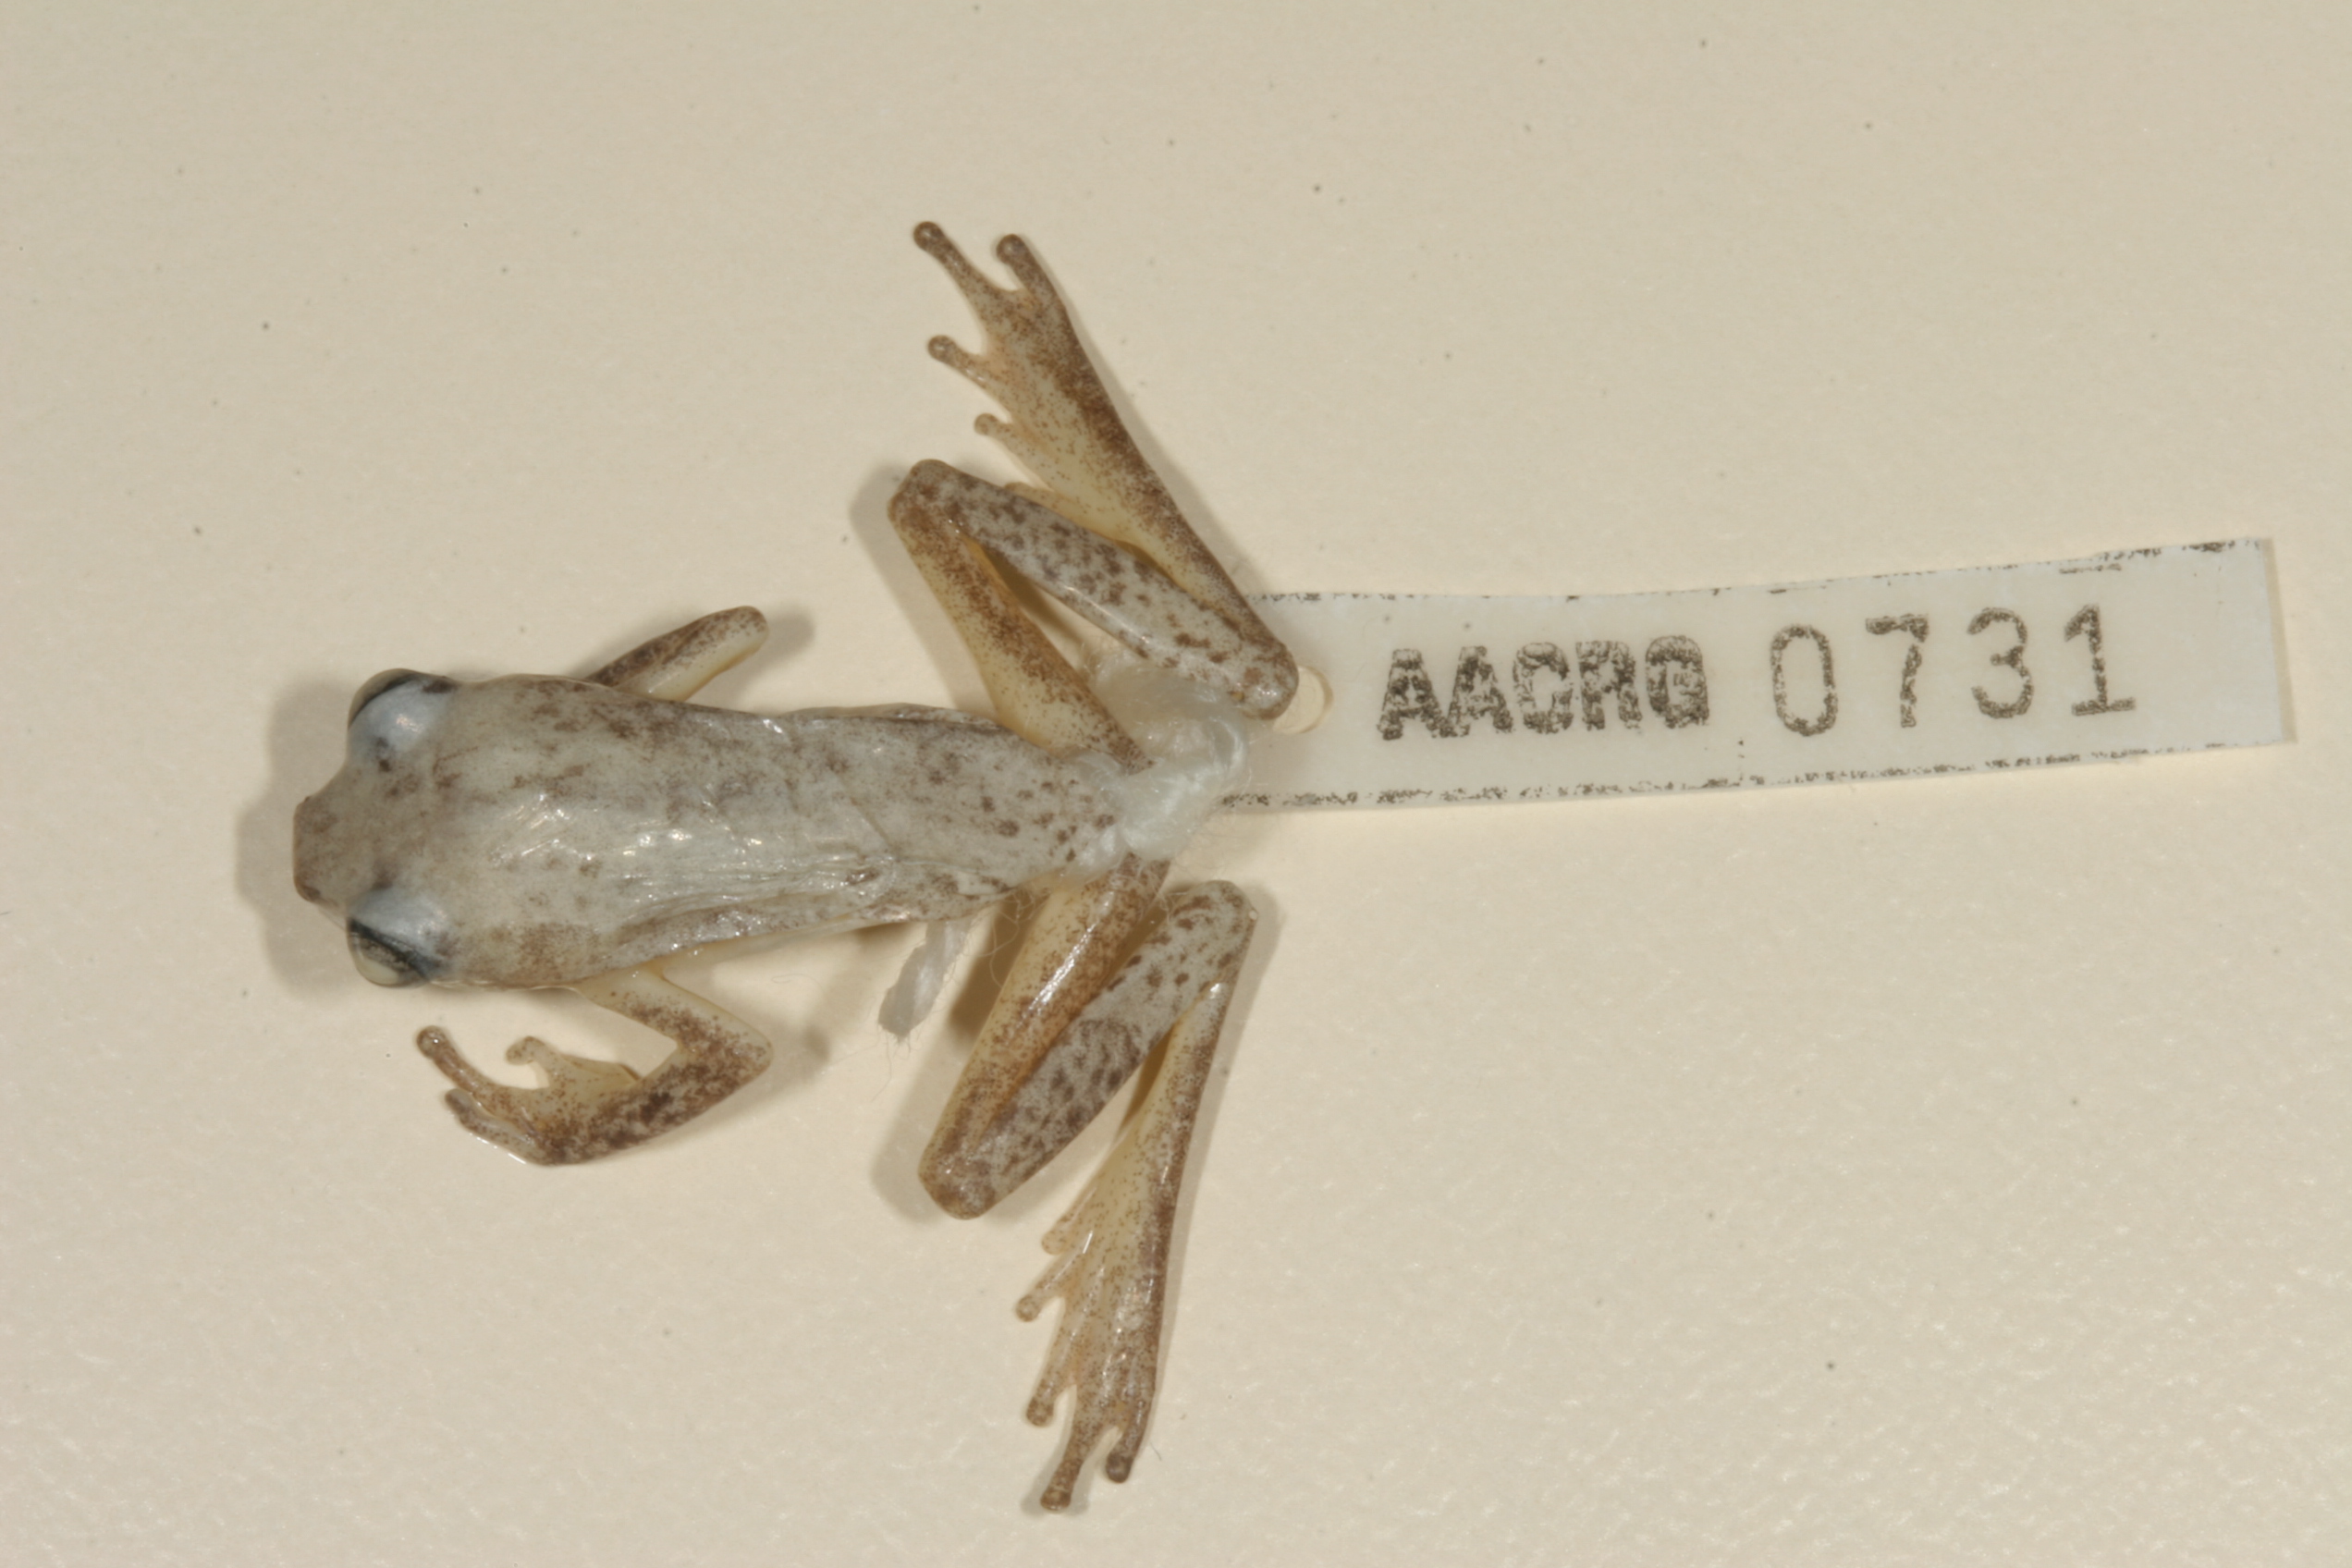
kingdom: Animalia
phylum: Chordata
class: Amphibia
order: Anura
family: Hyperoliidae
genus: Hyperolius
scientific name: Hyperolius marmoratus
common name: Painted reed frog
